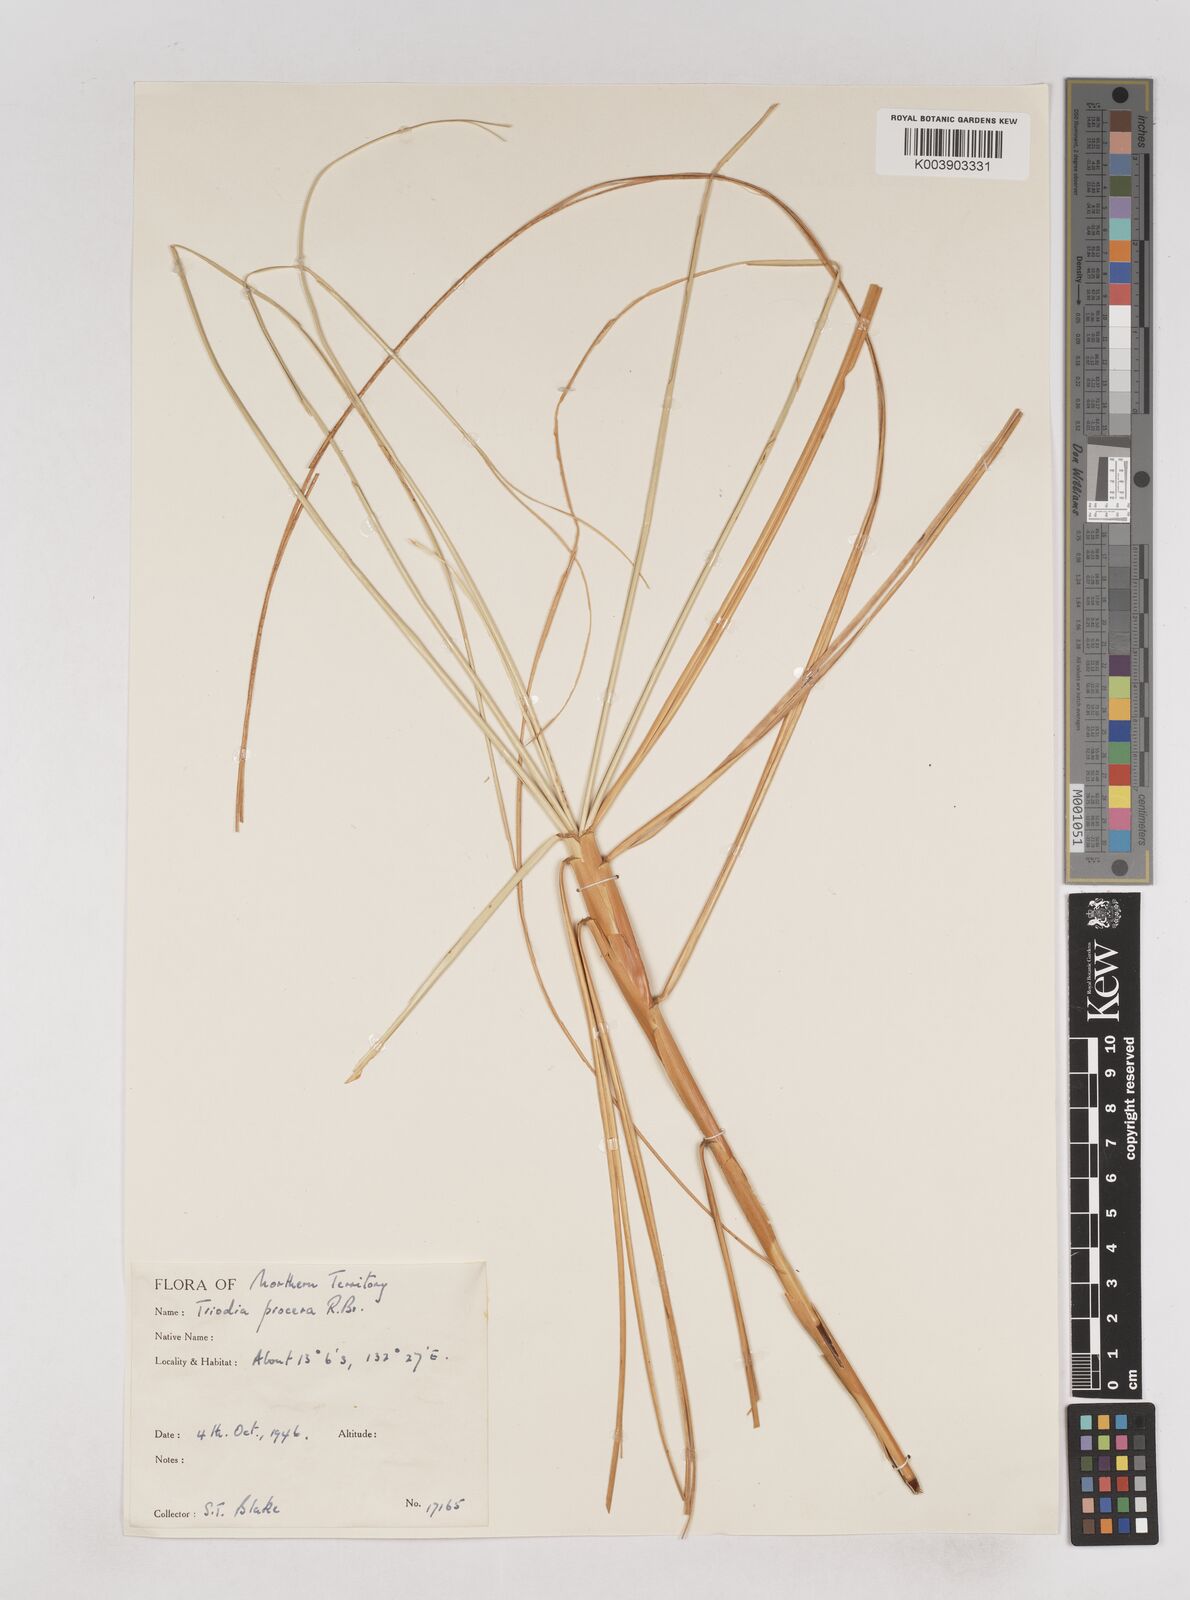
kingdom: Plantae
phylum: Tracheophyta
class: Liliopsida
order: Poales
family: Poaceae
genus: Triodia
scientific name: Triodia procera
